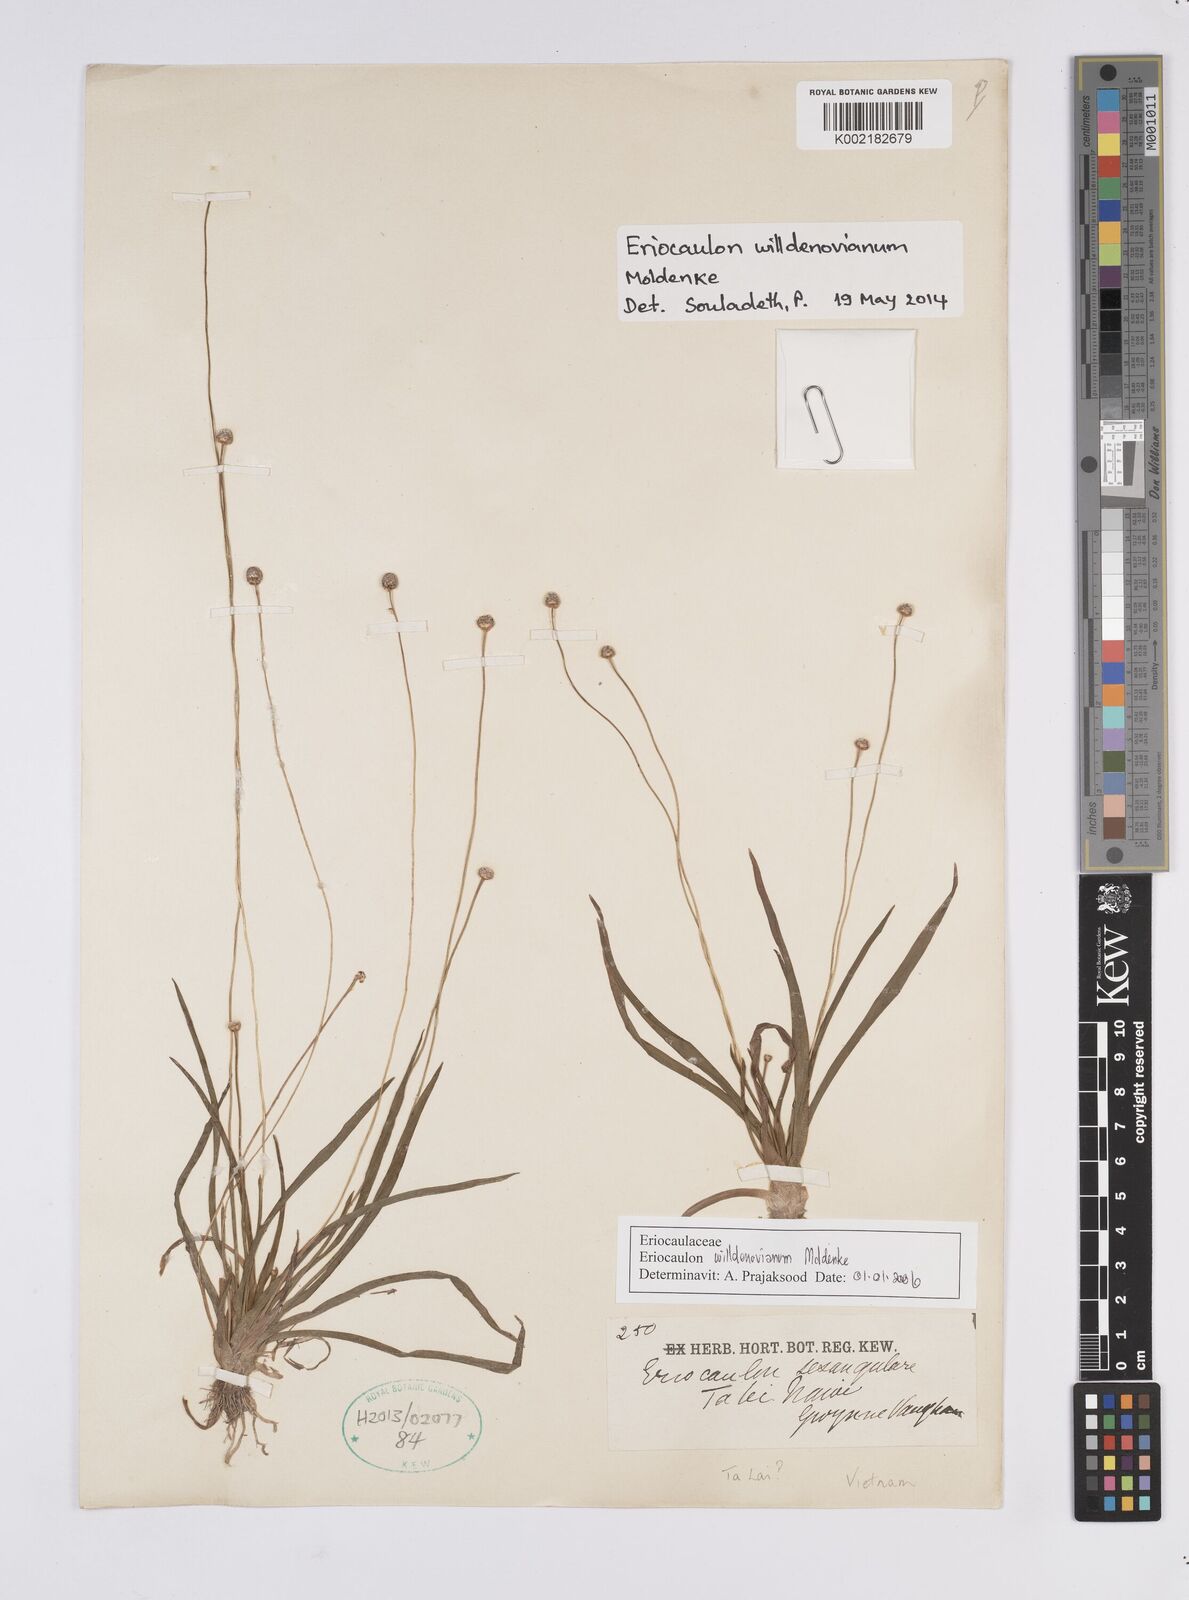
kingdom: Plantae
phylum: Tracheophyta
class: Liliopsida
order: Poales
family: Eriocaulaceae
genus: Eriocaulon
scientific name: Eriocaulon willdenovianum
